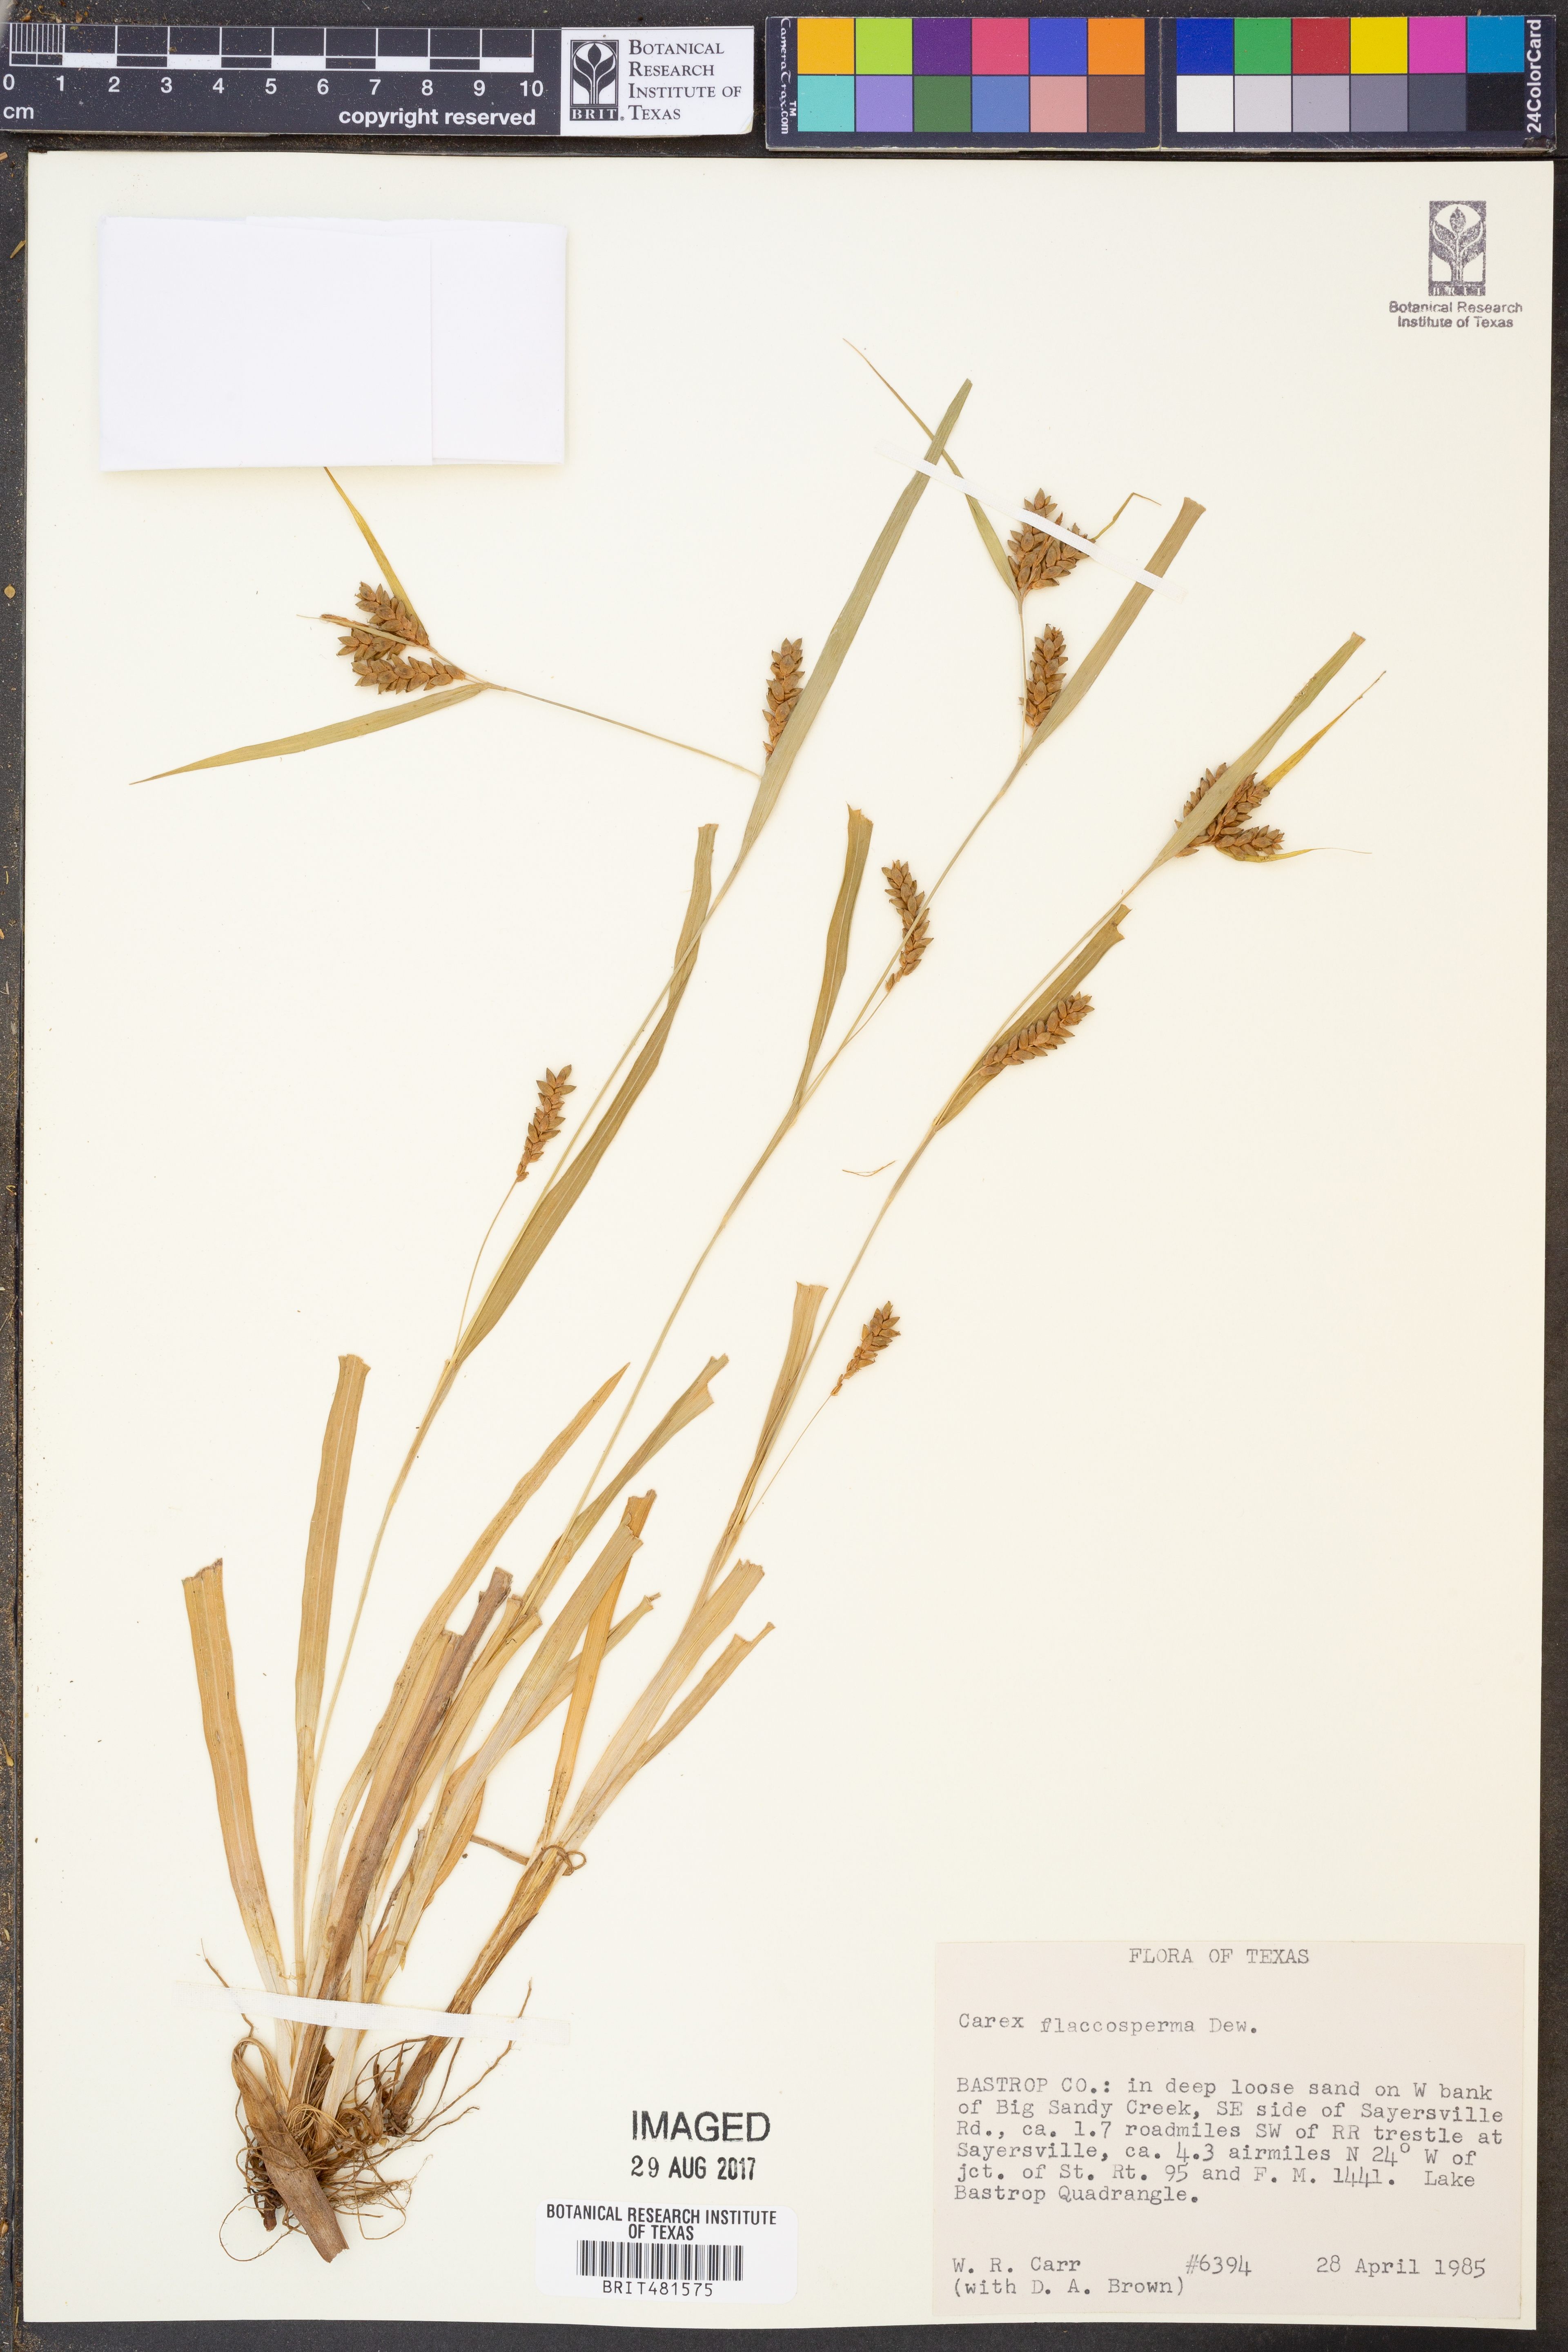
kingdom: Plantae
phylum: Tracheophyta
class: Liliopsida
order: Poales
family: Cyperaceae
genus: Carex
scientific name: Carex flaccosperma
